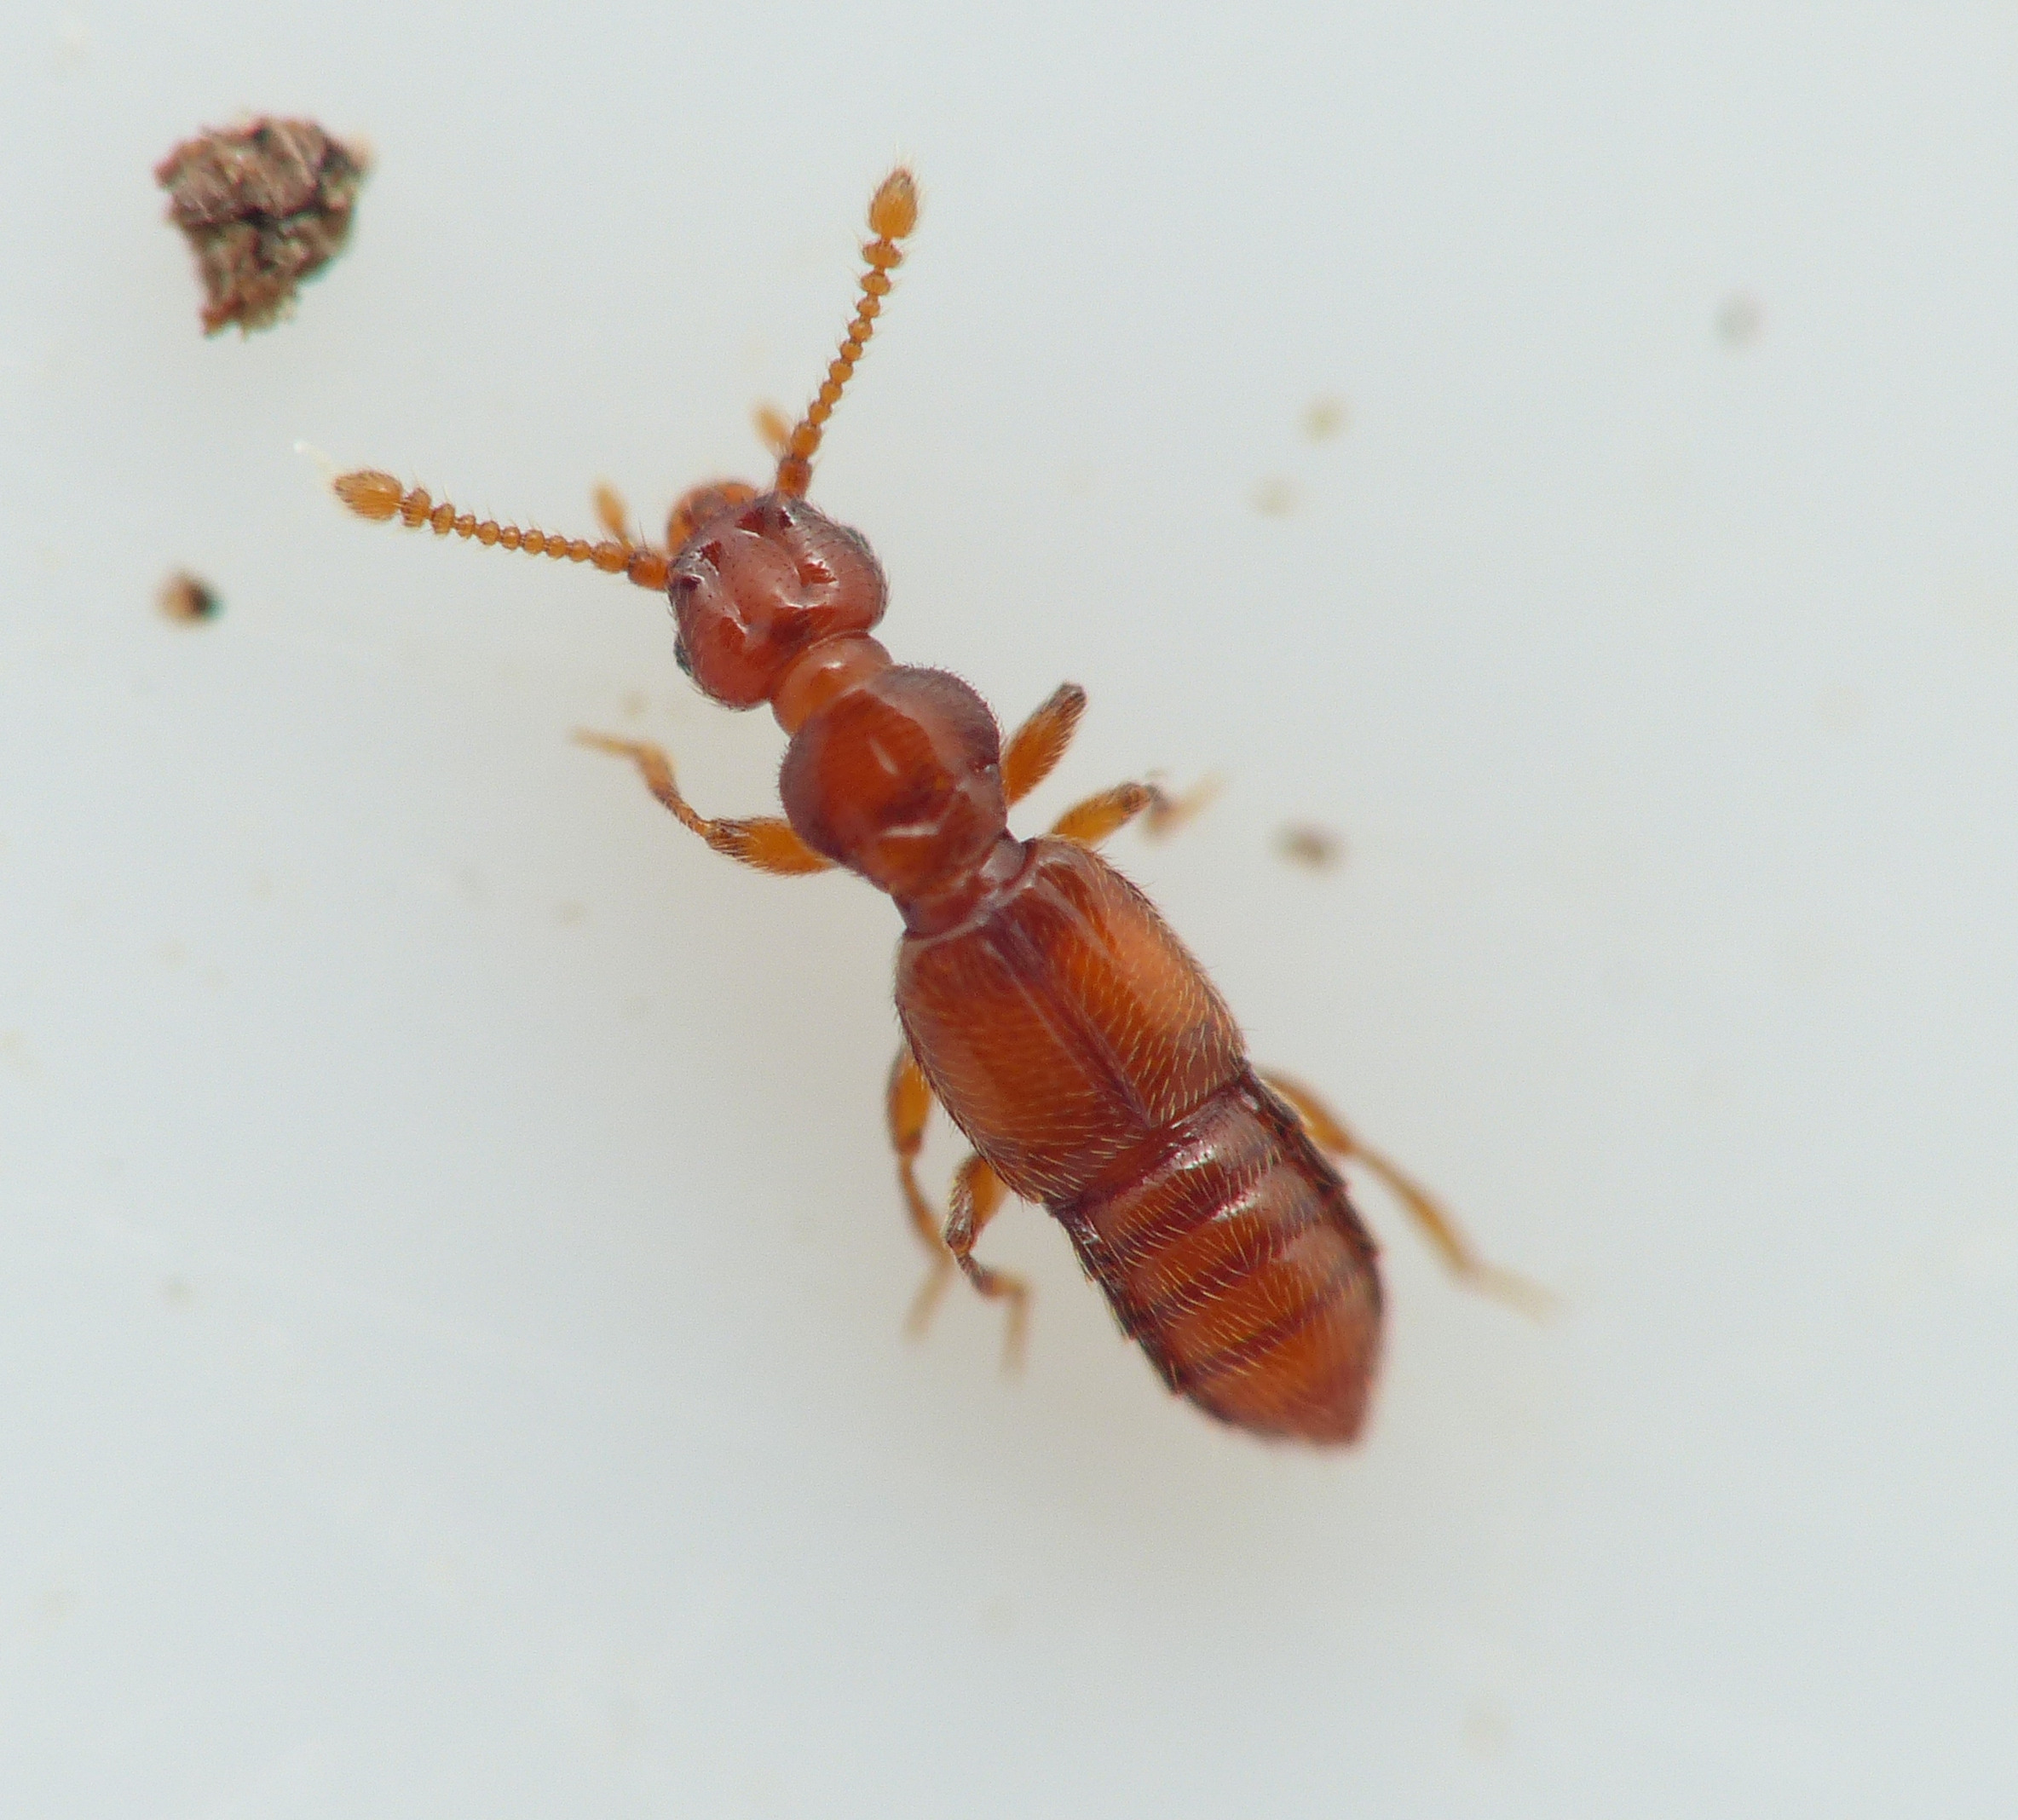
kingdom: Animalia
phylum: Arthropoda
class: Insecta
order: Coleoptera
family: Staphylinidae
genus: Plectophloeus
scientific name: Plectophloeus nubigena
